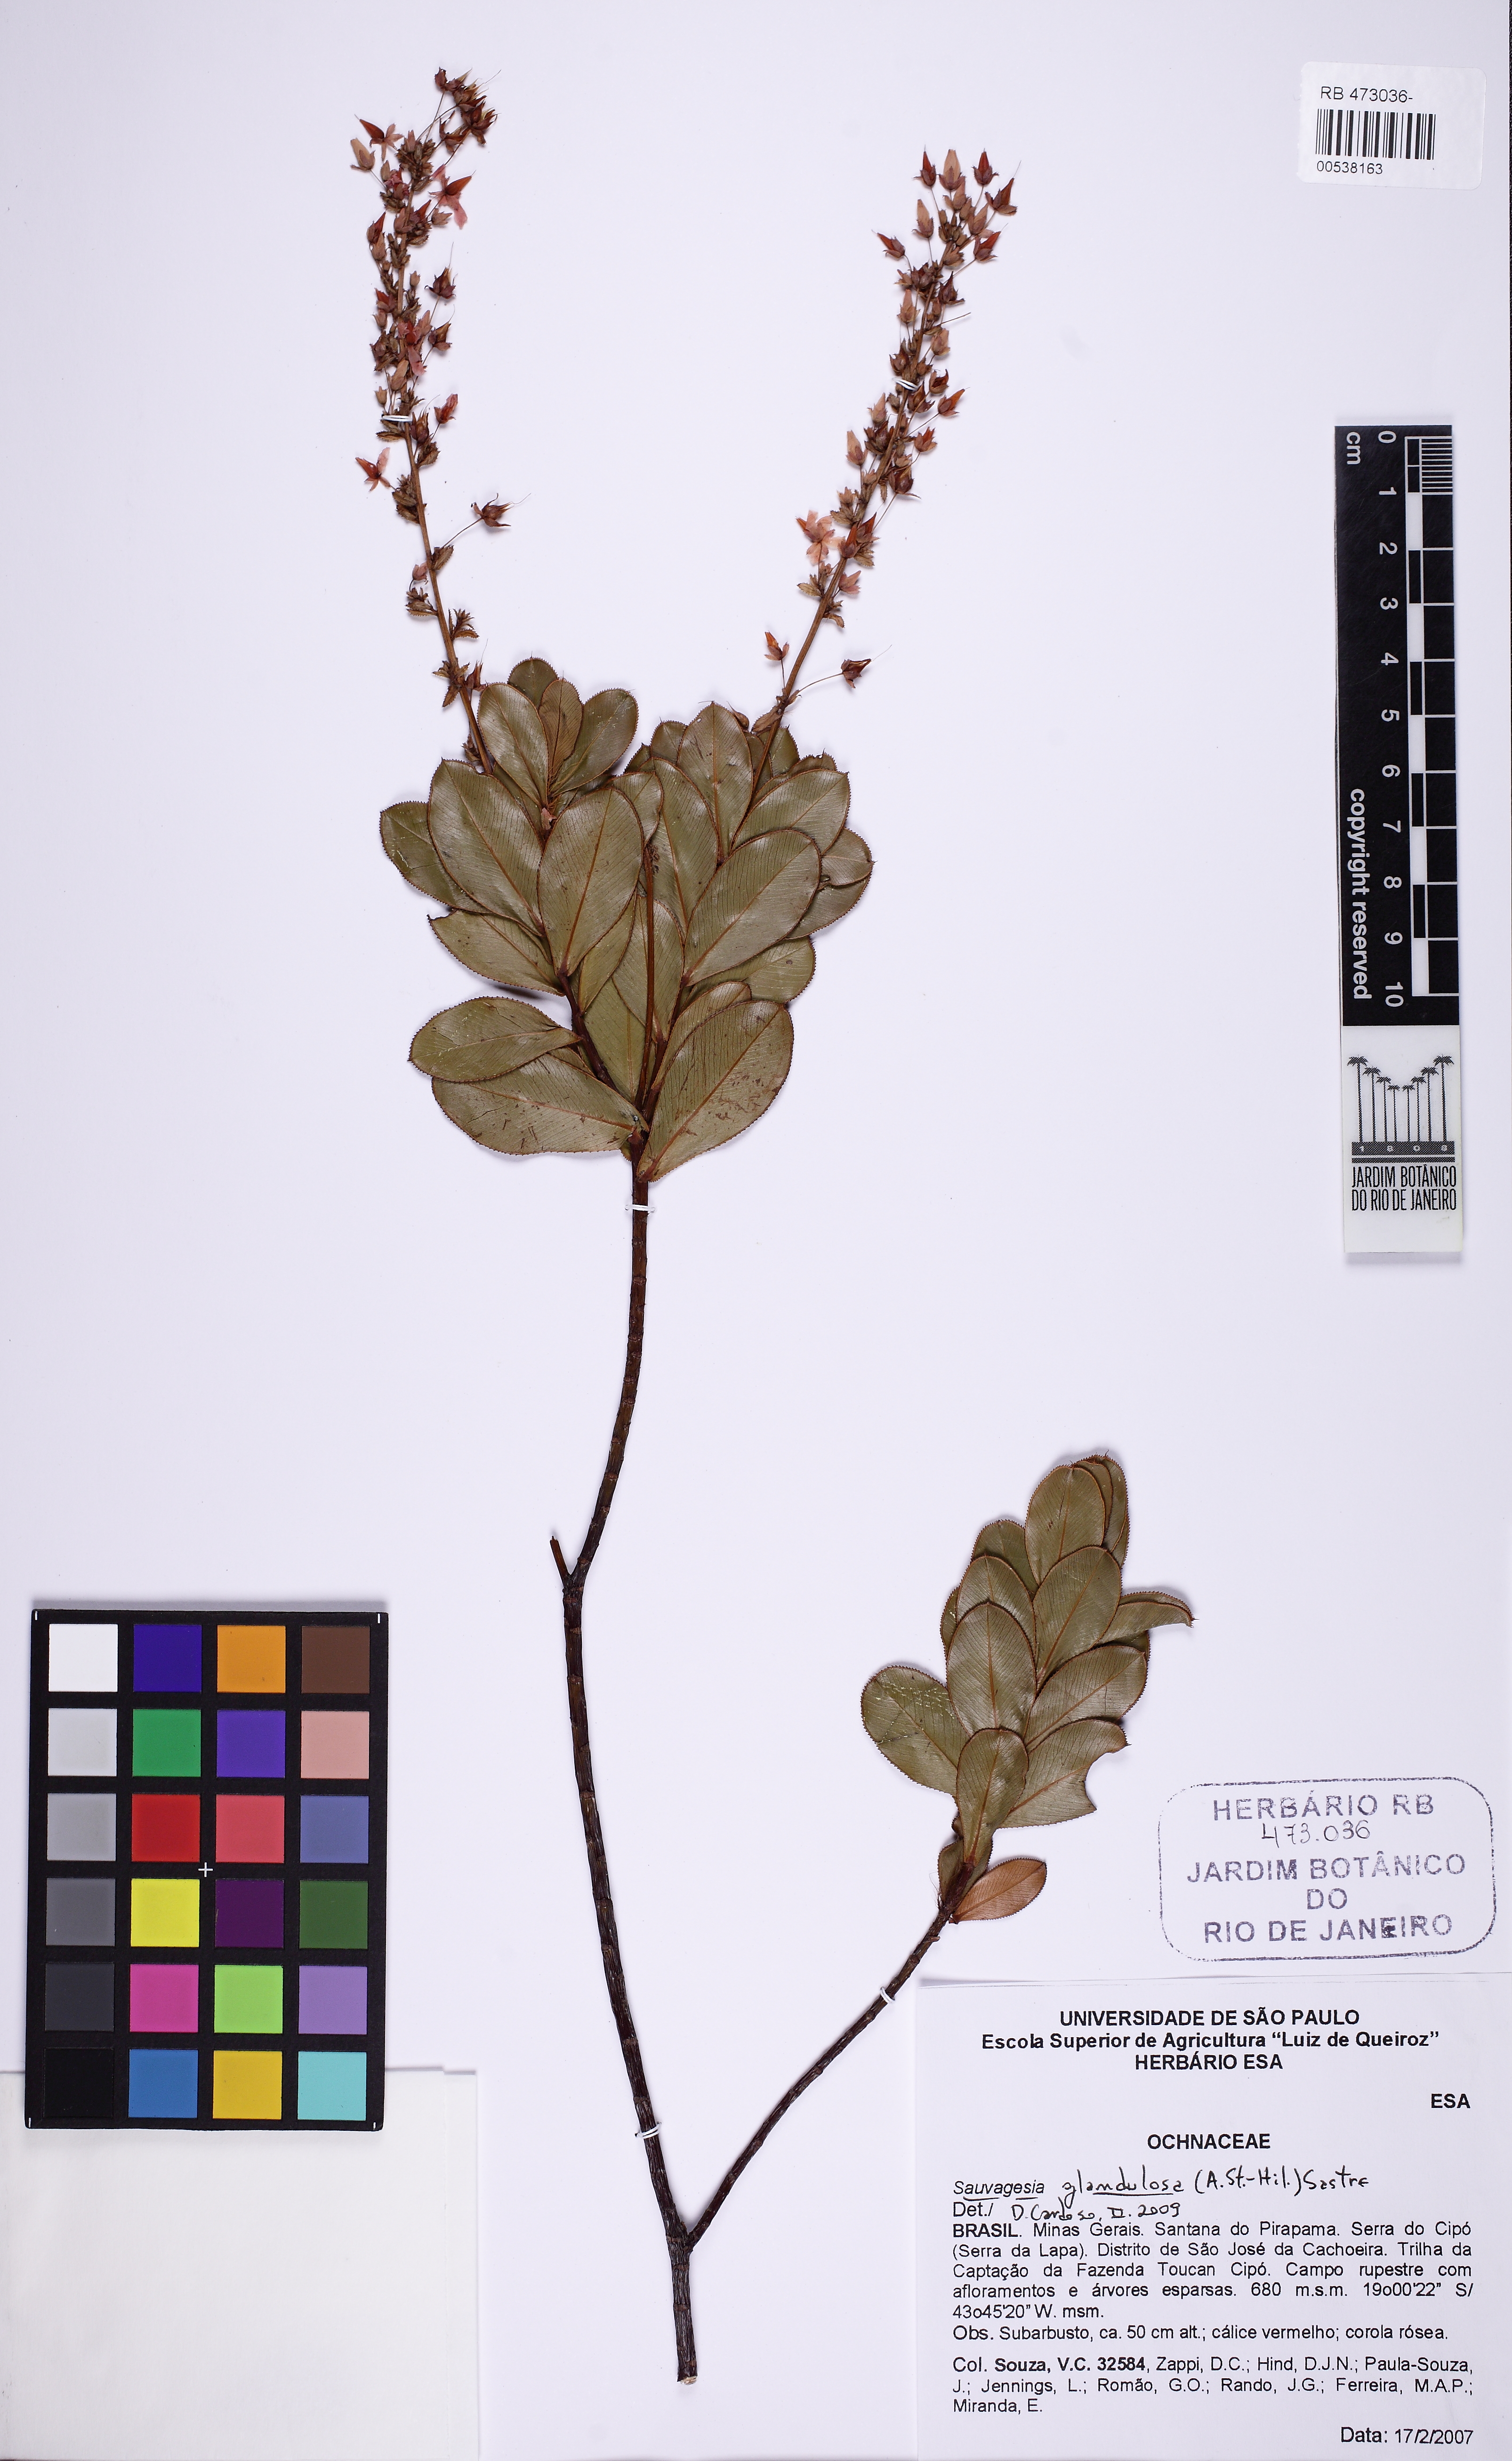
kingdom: Plantae
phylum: Tracheophyta
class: Magnoliopsida
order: Malpighiales
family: Ochnaceae
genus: Sauvagesia
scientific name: Sauvagesia
